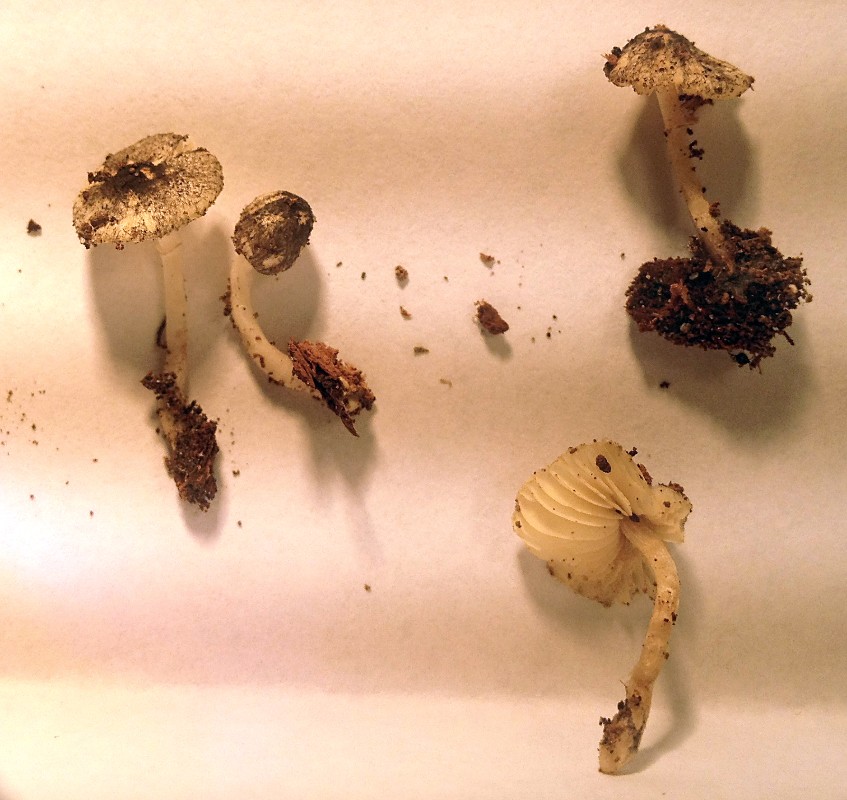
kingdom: Fungi
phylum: Basidiomycota
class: Agaricomycetes
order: Agaricales
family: Agaricaceae
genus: Leucoagaricus
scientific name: Leucoagaricus melanotrichus
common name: gråhåret silkehat
